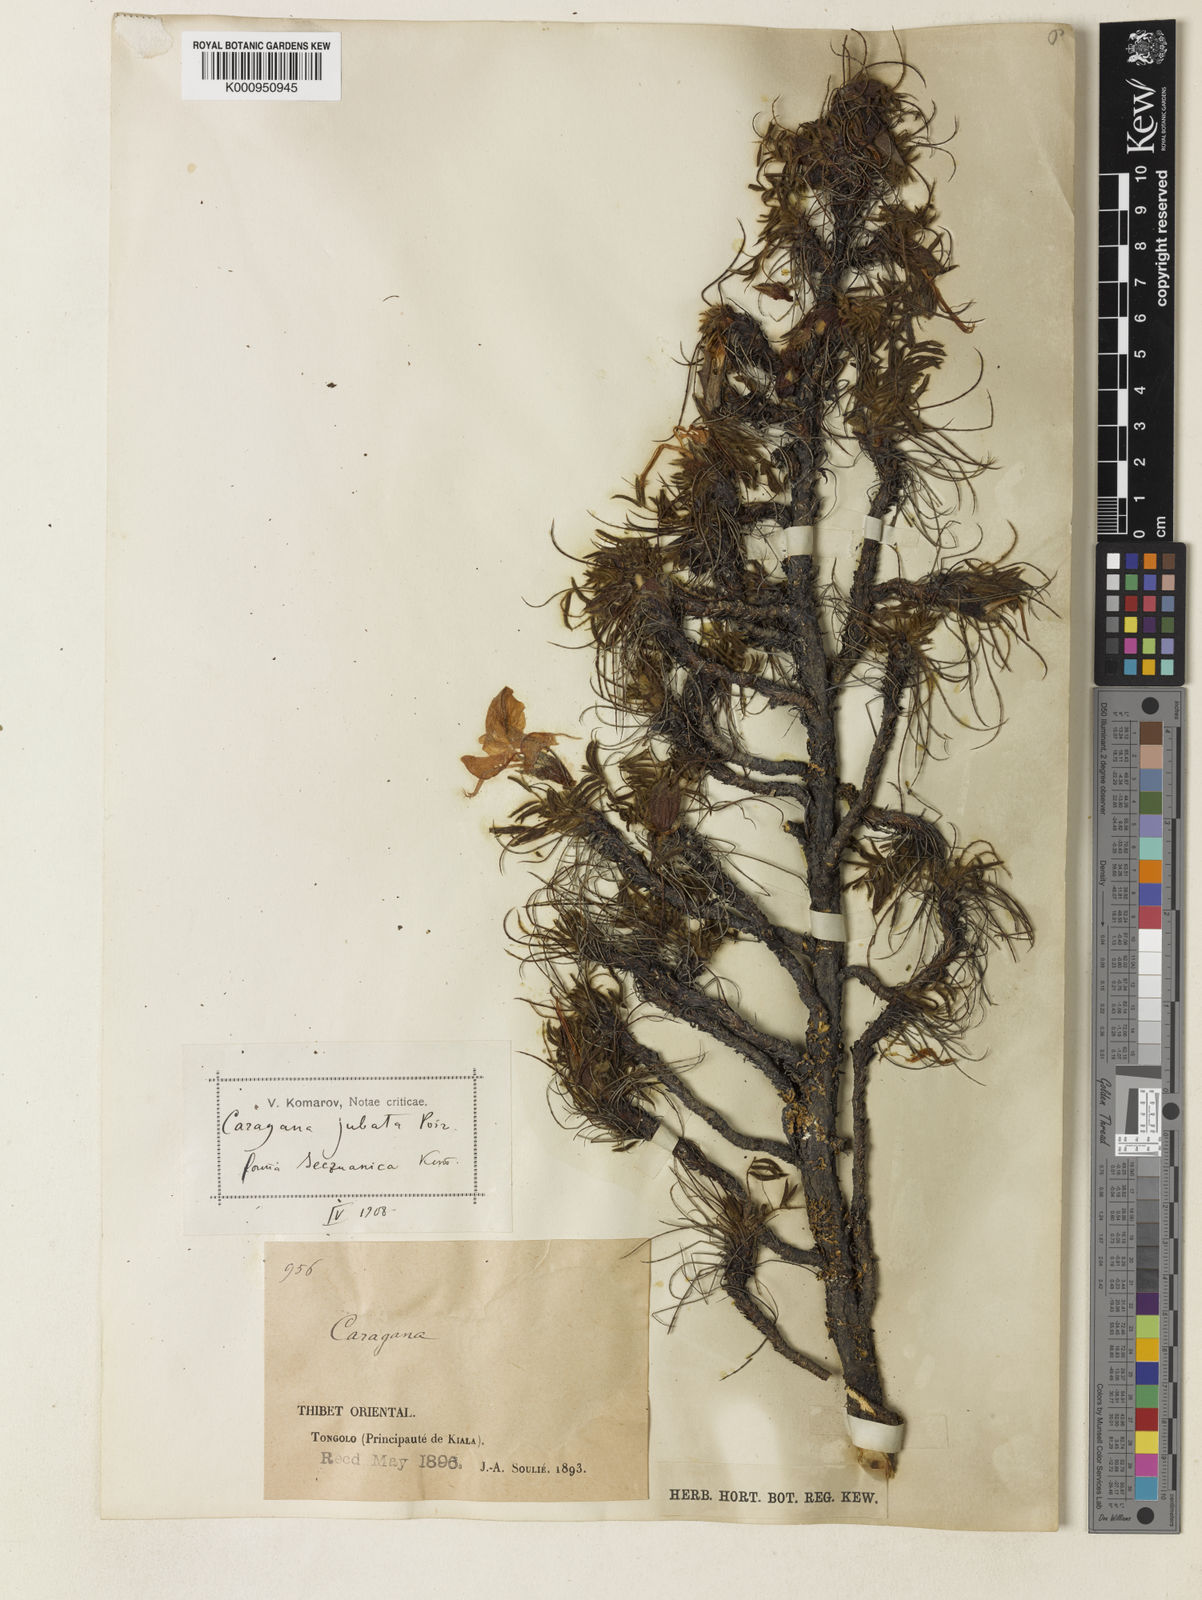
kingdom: Plantae
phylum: Tracheophyta
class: Magnoliopsida
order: Fabales
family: Fabaceae
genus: Caragana
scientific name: Caragana jubata
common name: Shag-spine peashrub
